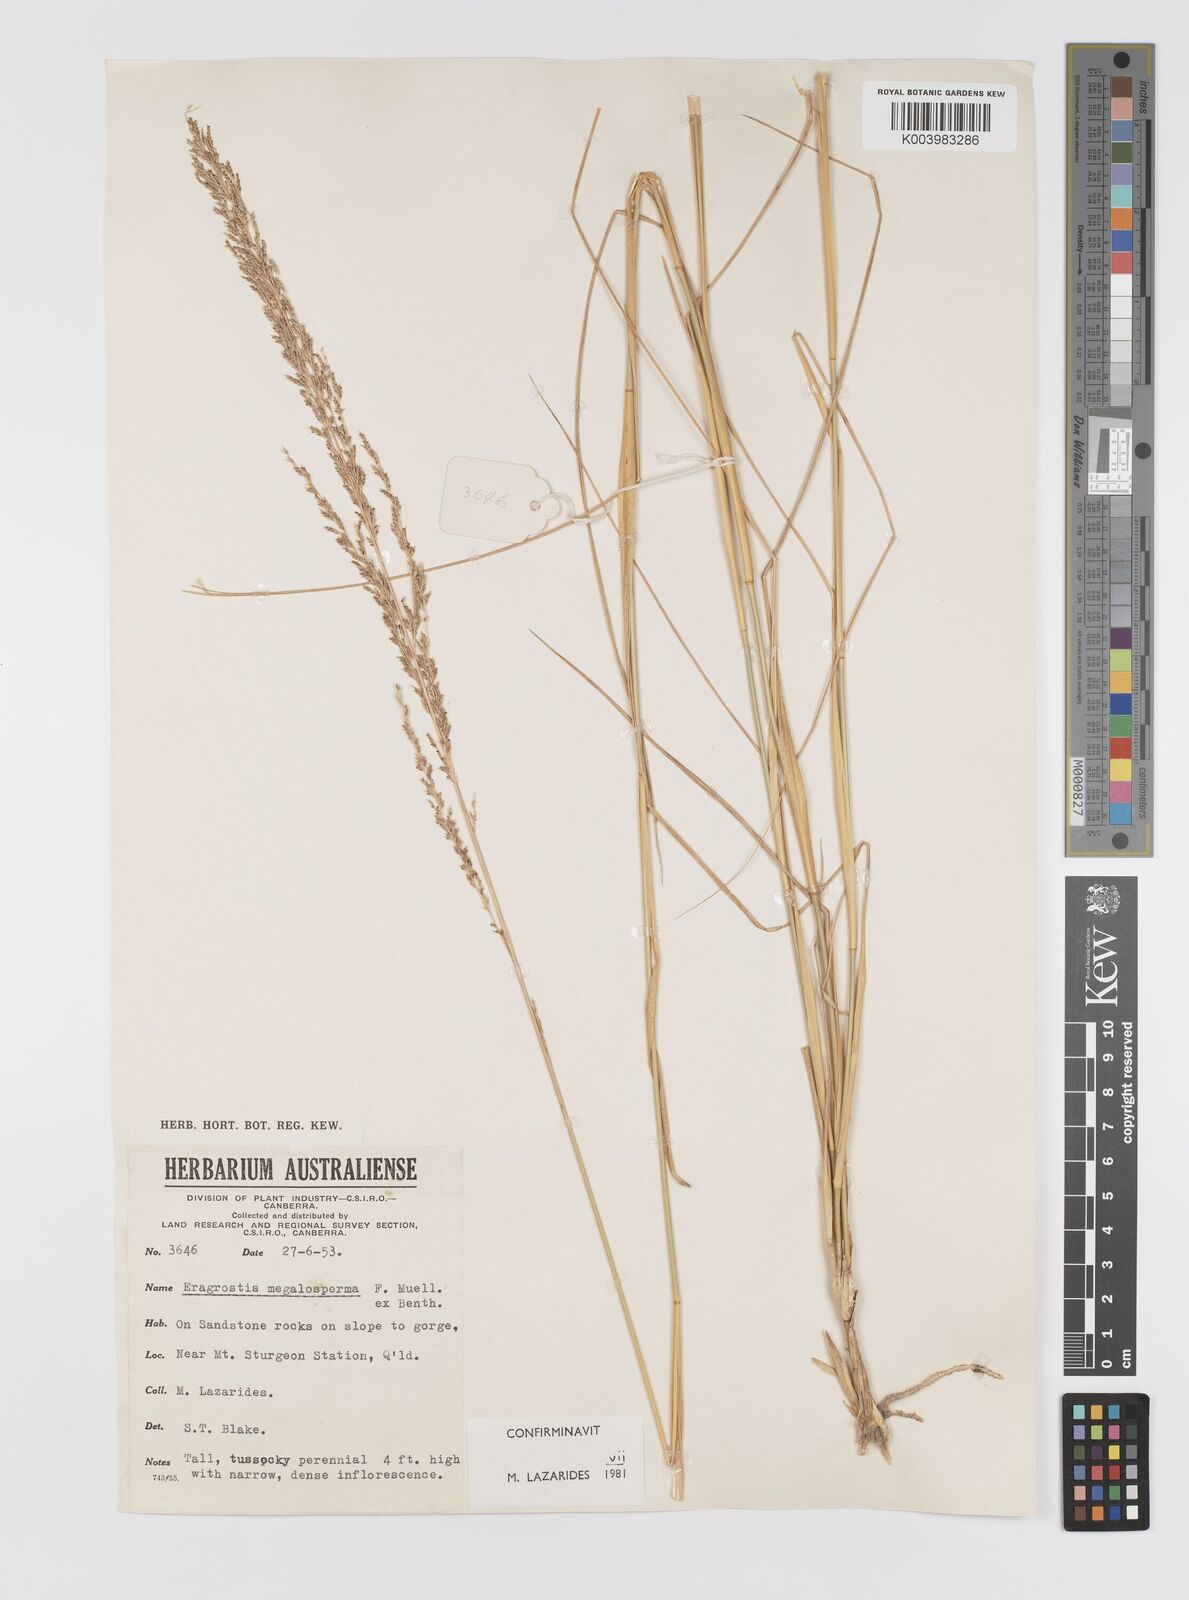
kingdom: Plantae
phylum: Tracheophyta
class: Liliopsida
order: Poales
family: Poaceae
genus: Sporobolus
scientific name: Sporobolus megalospermus
